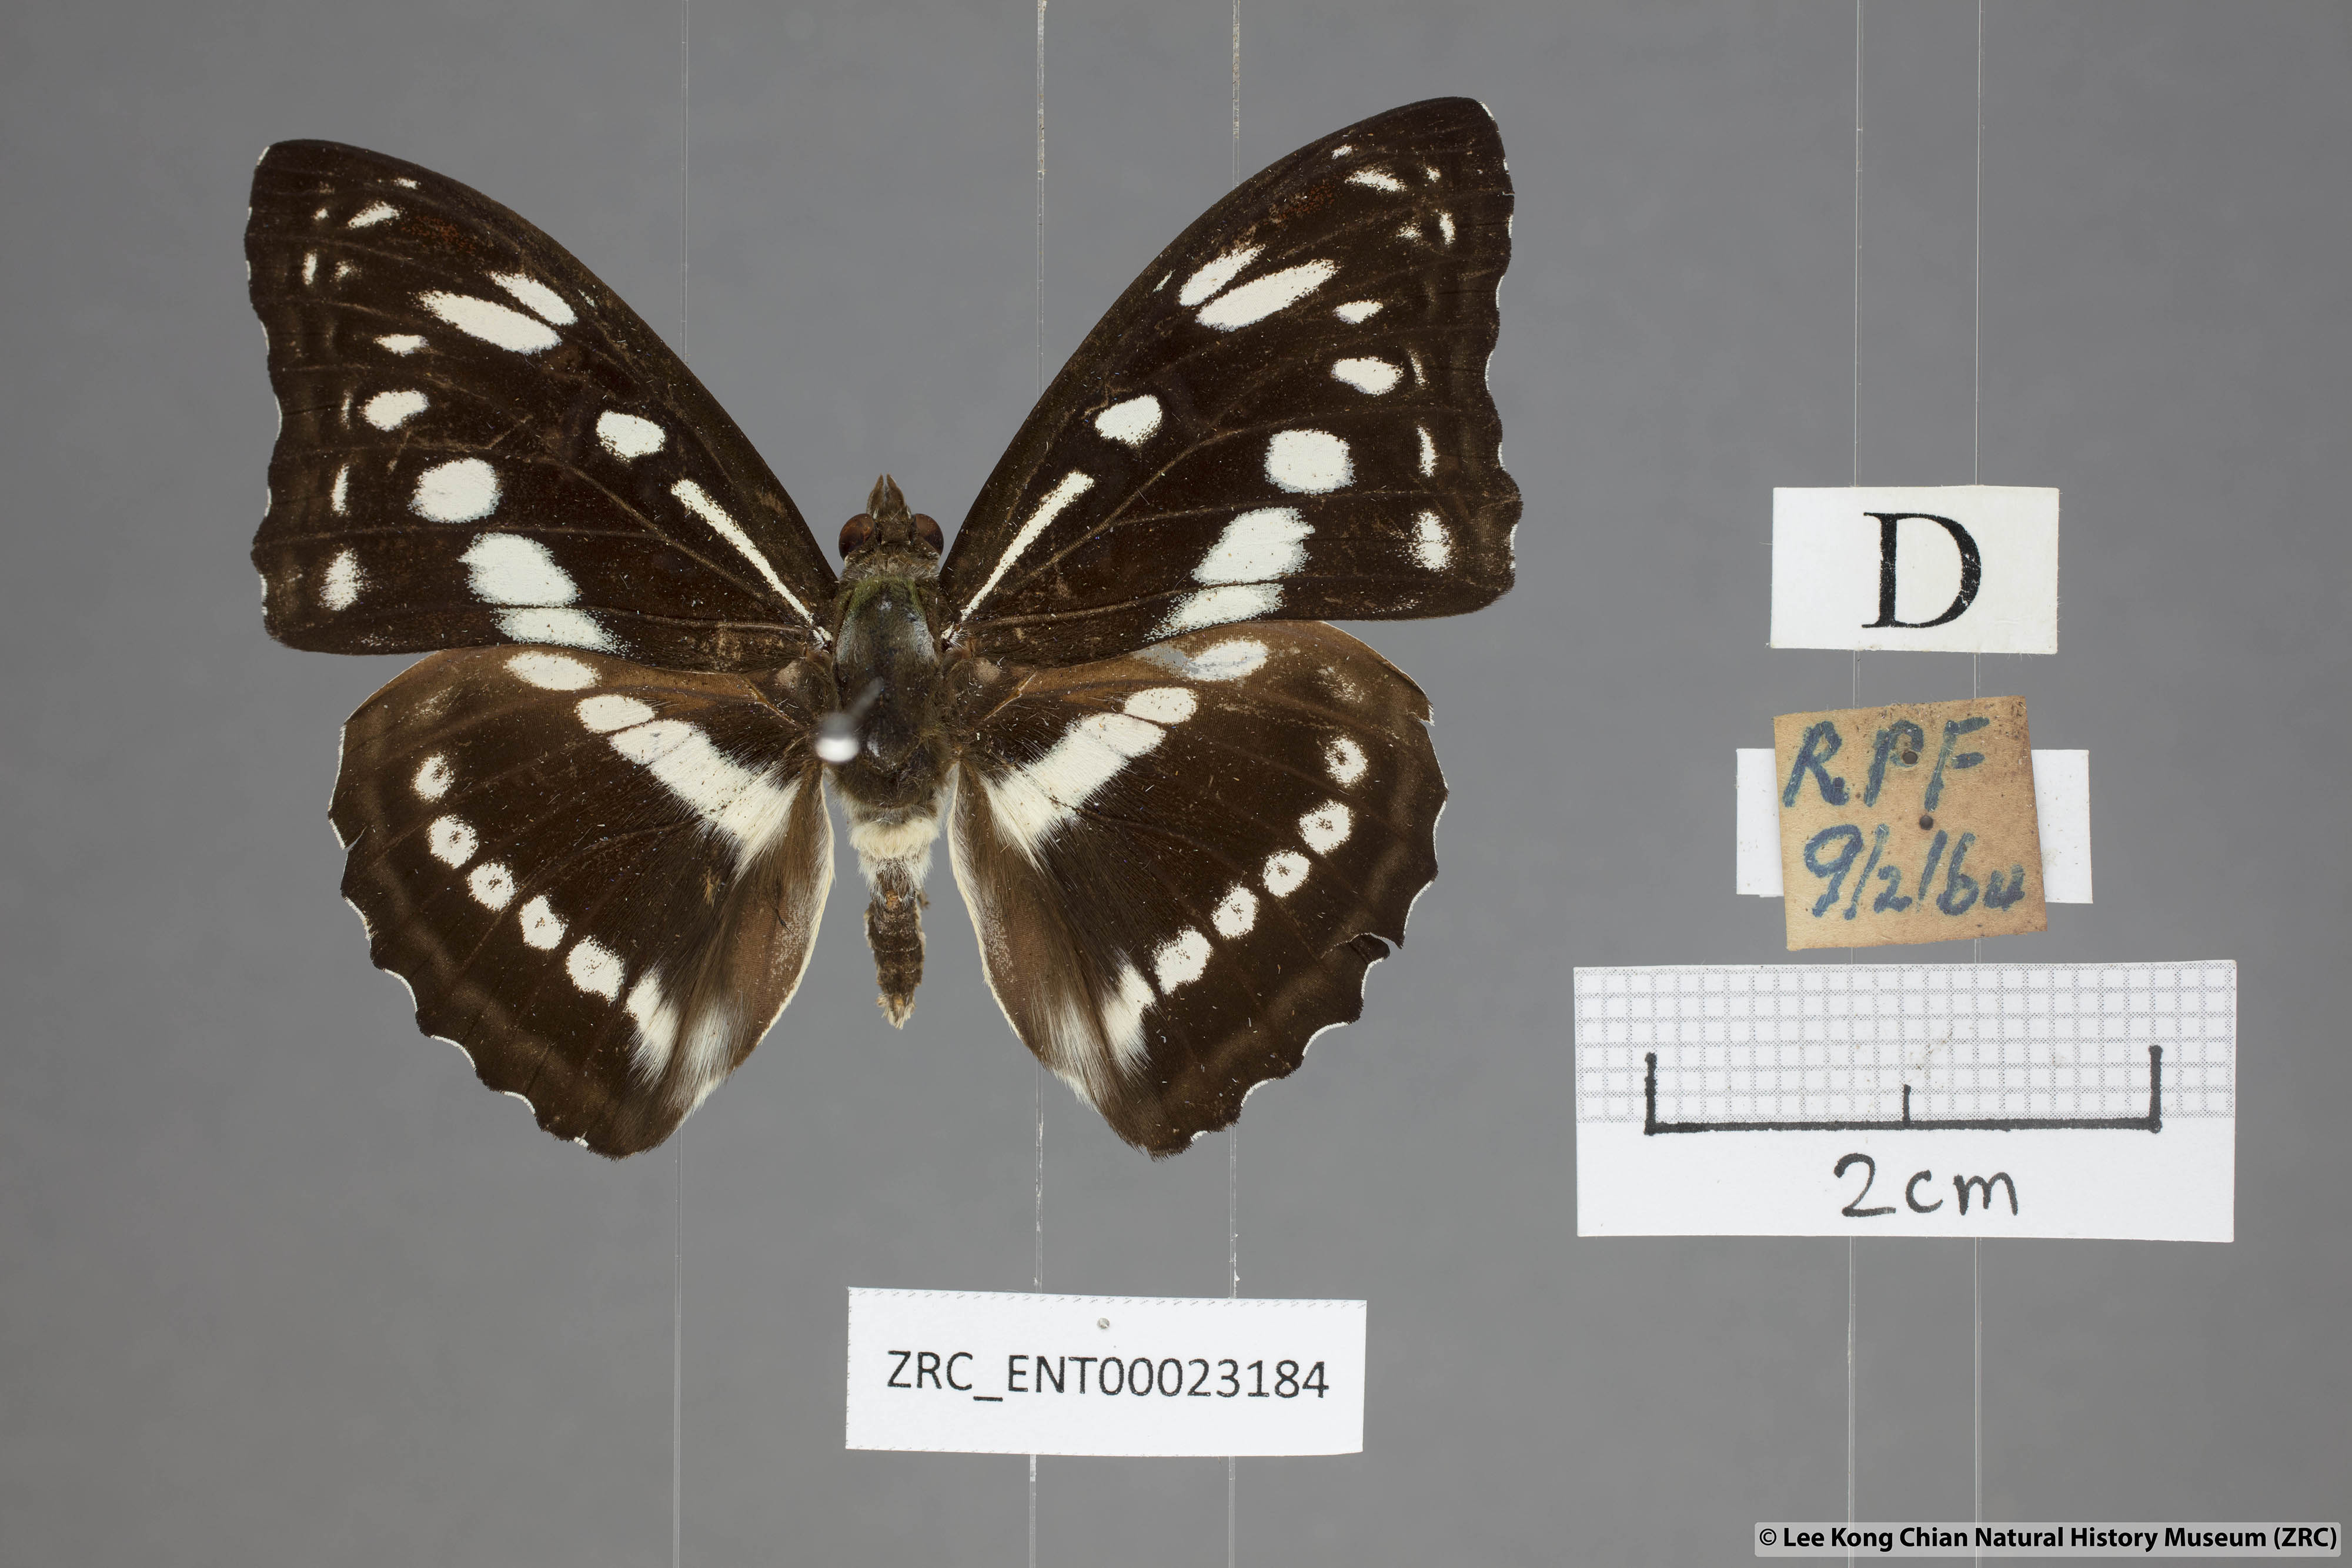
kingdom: Animalia
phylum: Arthropoda
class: Insecta
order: Lepidoptera
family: Nymphalidae
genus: Parathyma
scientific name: Parathyma asura
